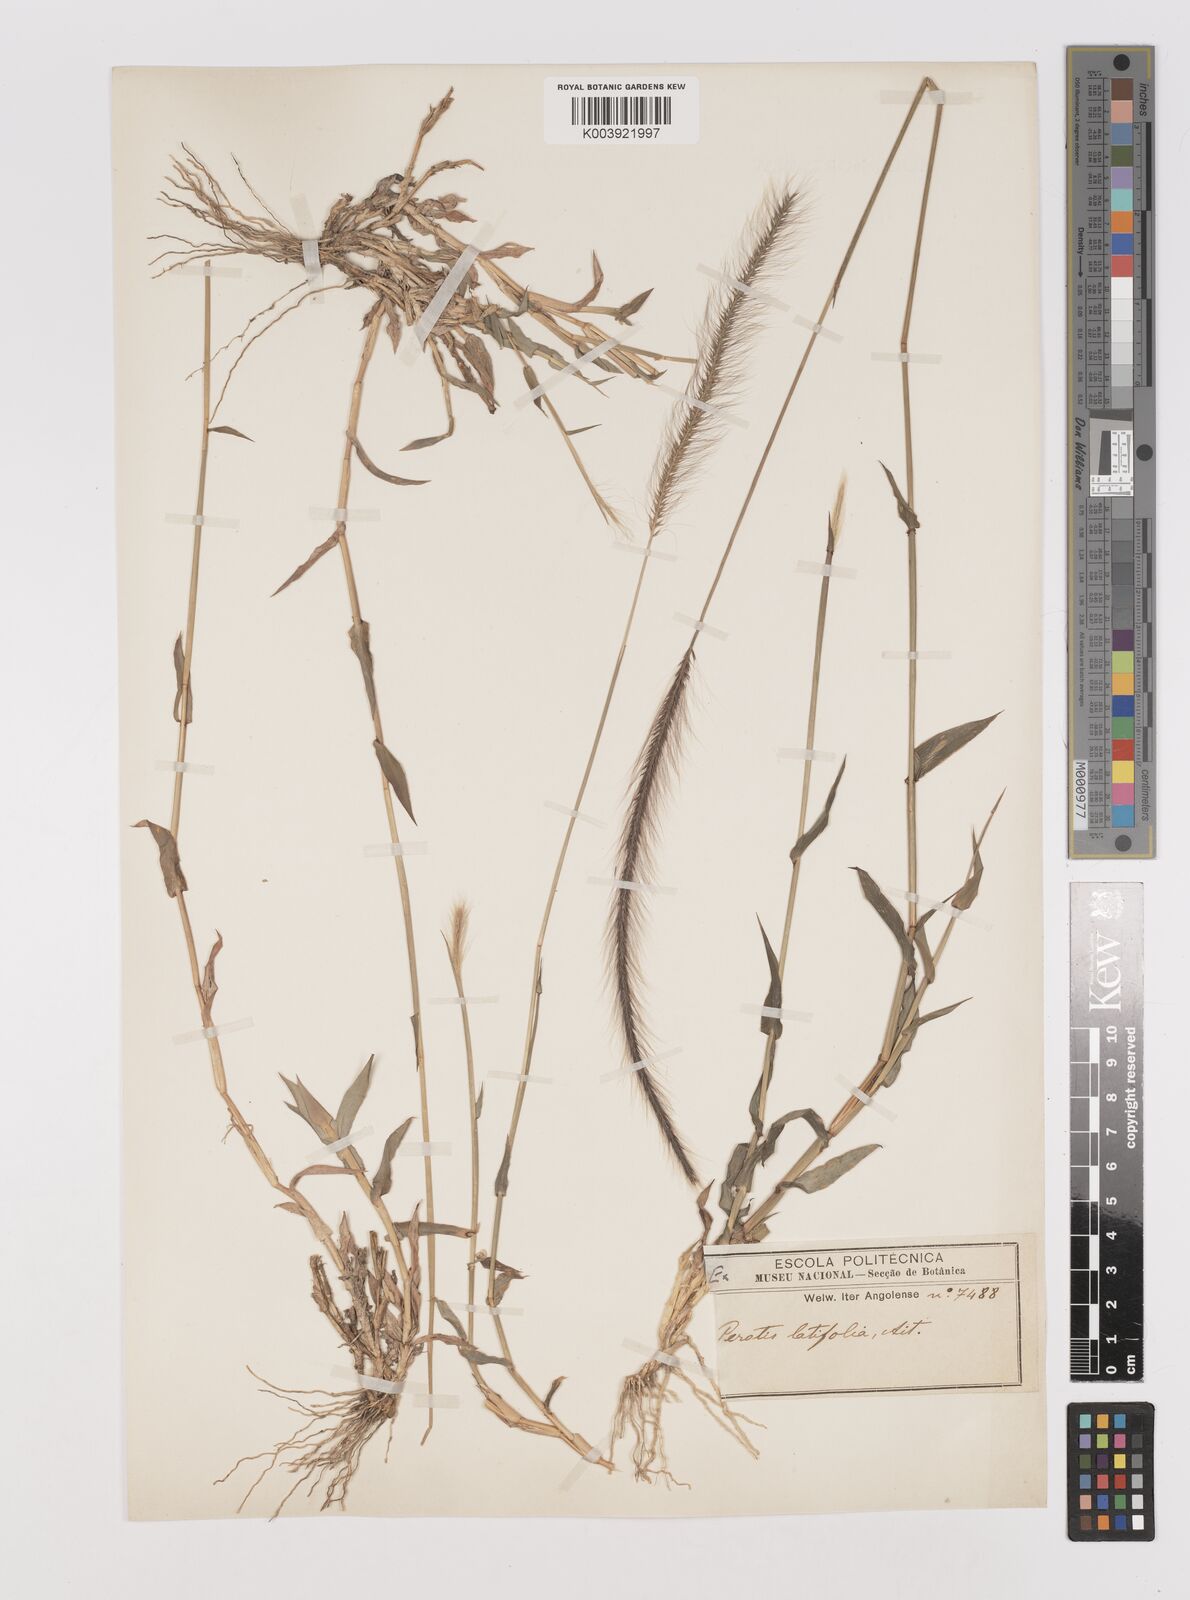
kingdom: Plantae
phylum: Tracheophyta
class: Liliopsida
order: Poales
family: Poaceae
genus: Perotis
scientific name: Perotis patens
